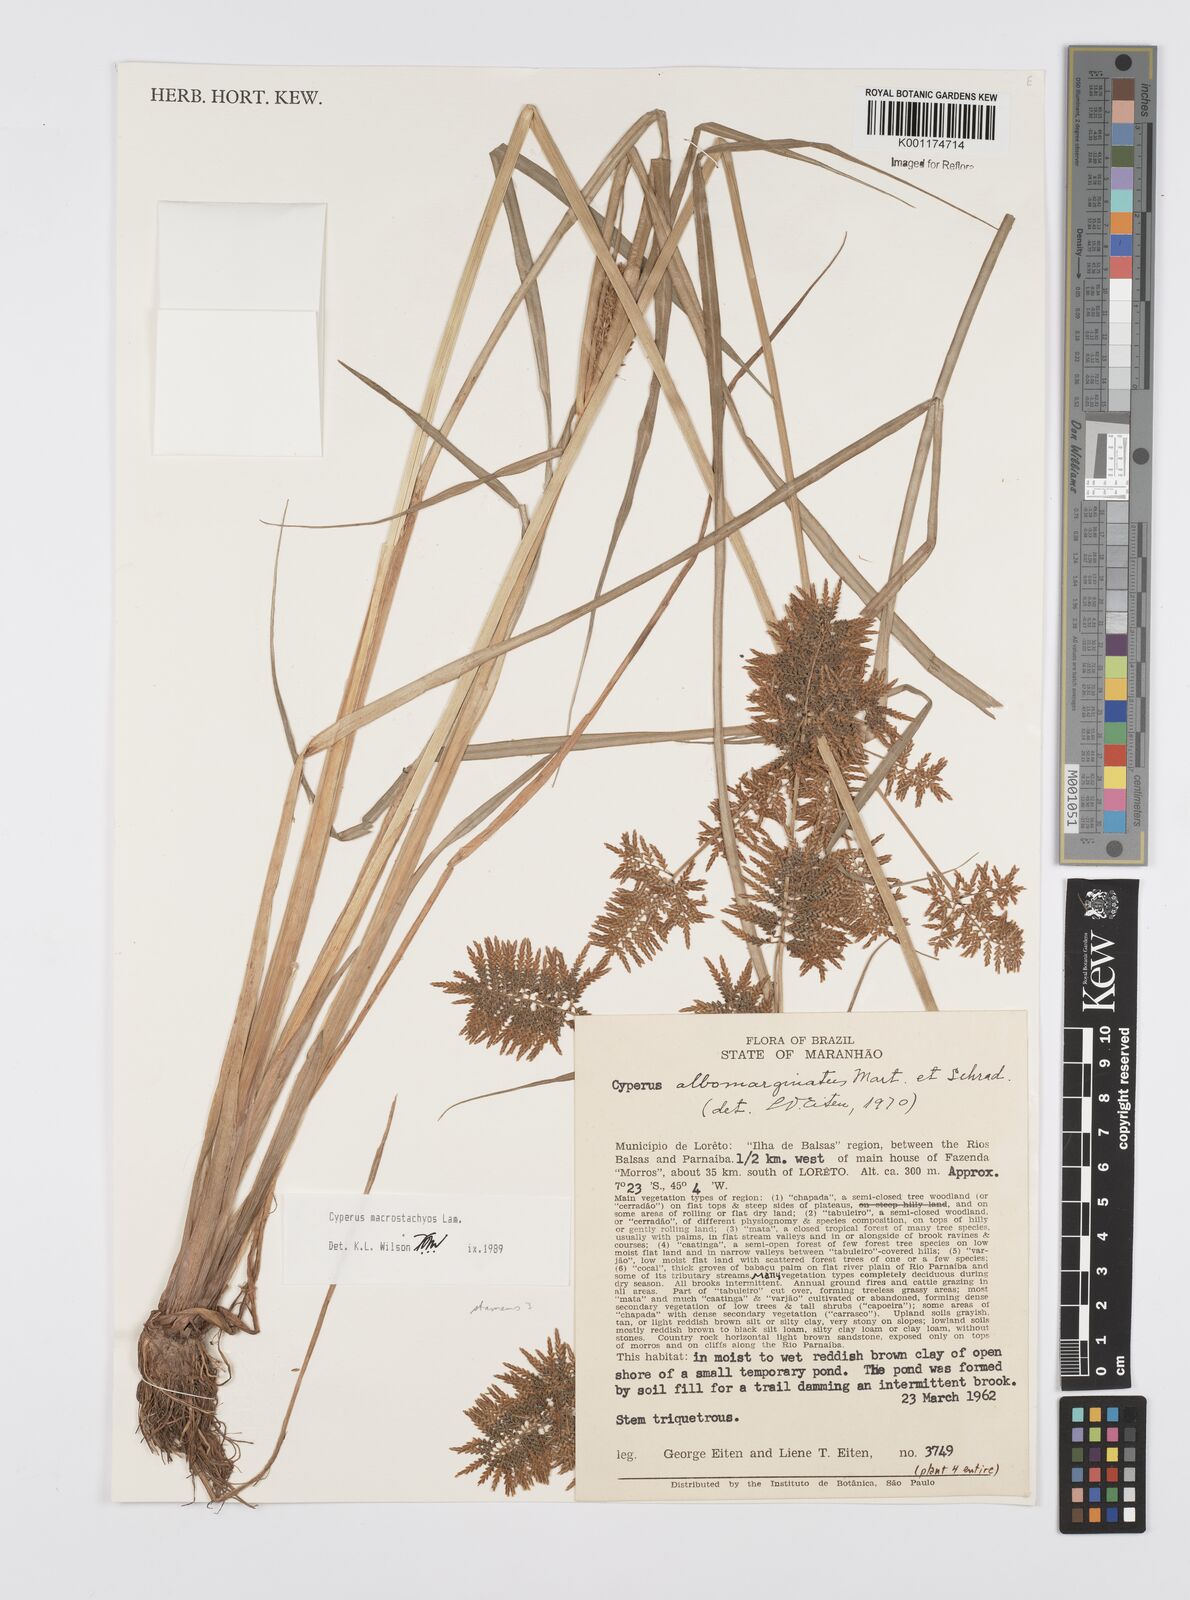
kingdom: Plantae
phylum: Tracheophyta
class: Liliopsida
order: Poales
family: Cyperaceae
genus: Cyperus
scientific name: Cyperus macrostachyos
